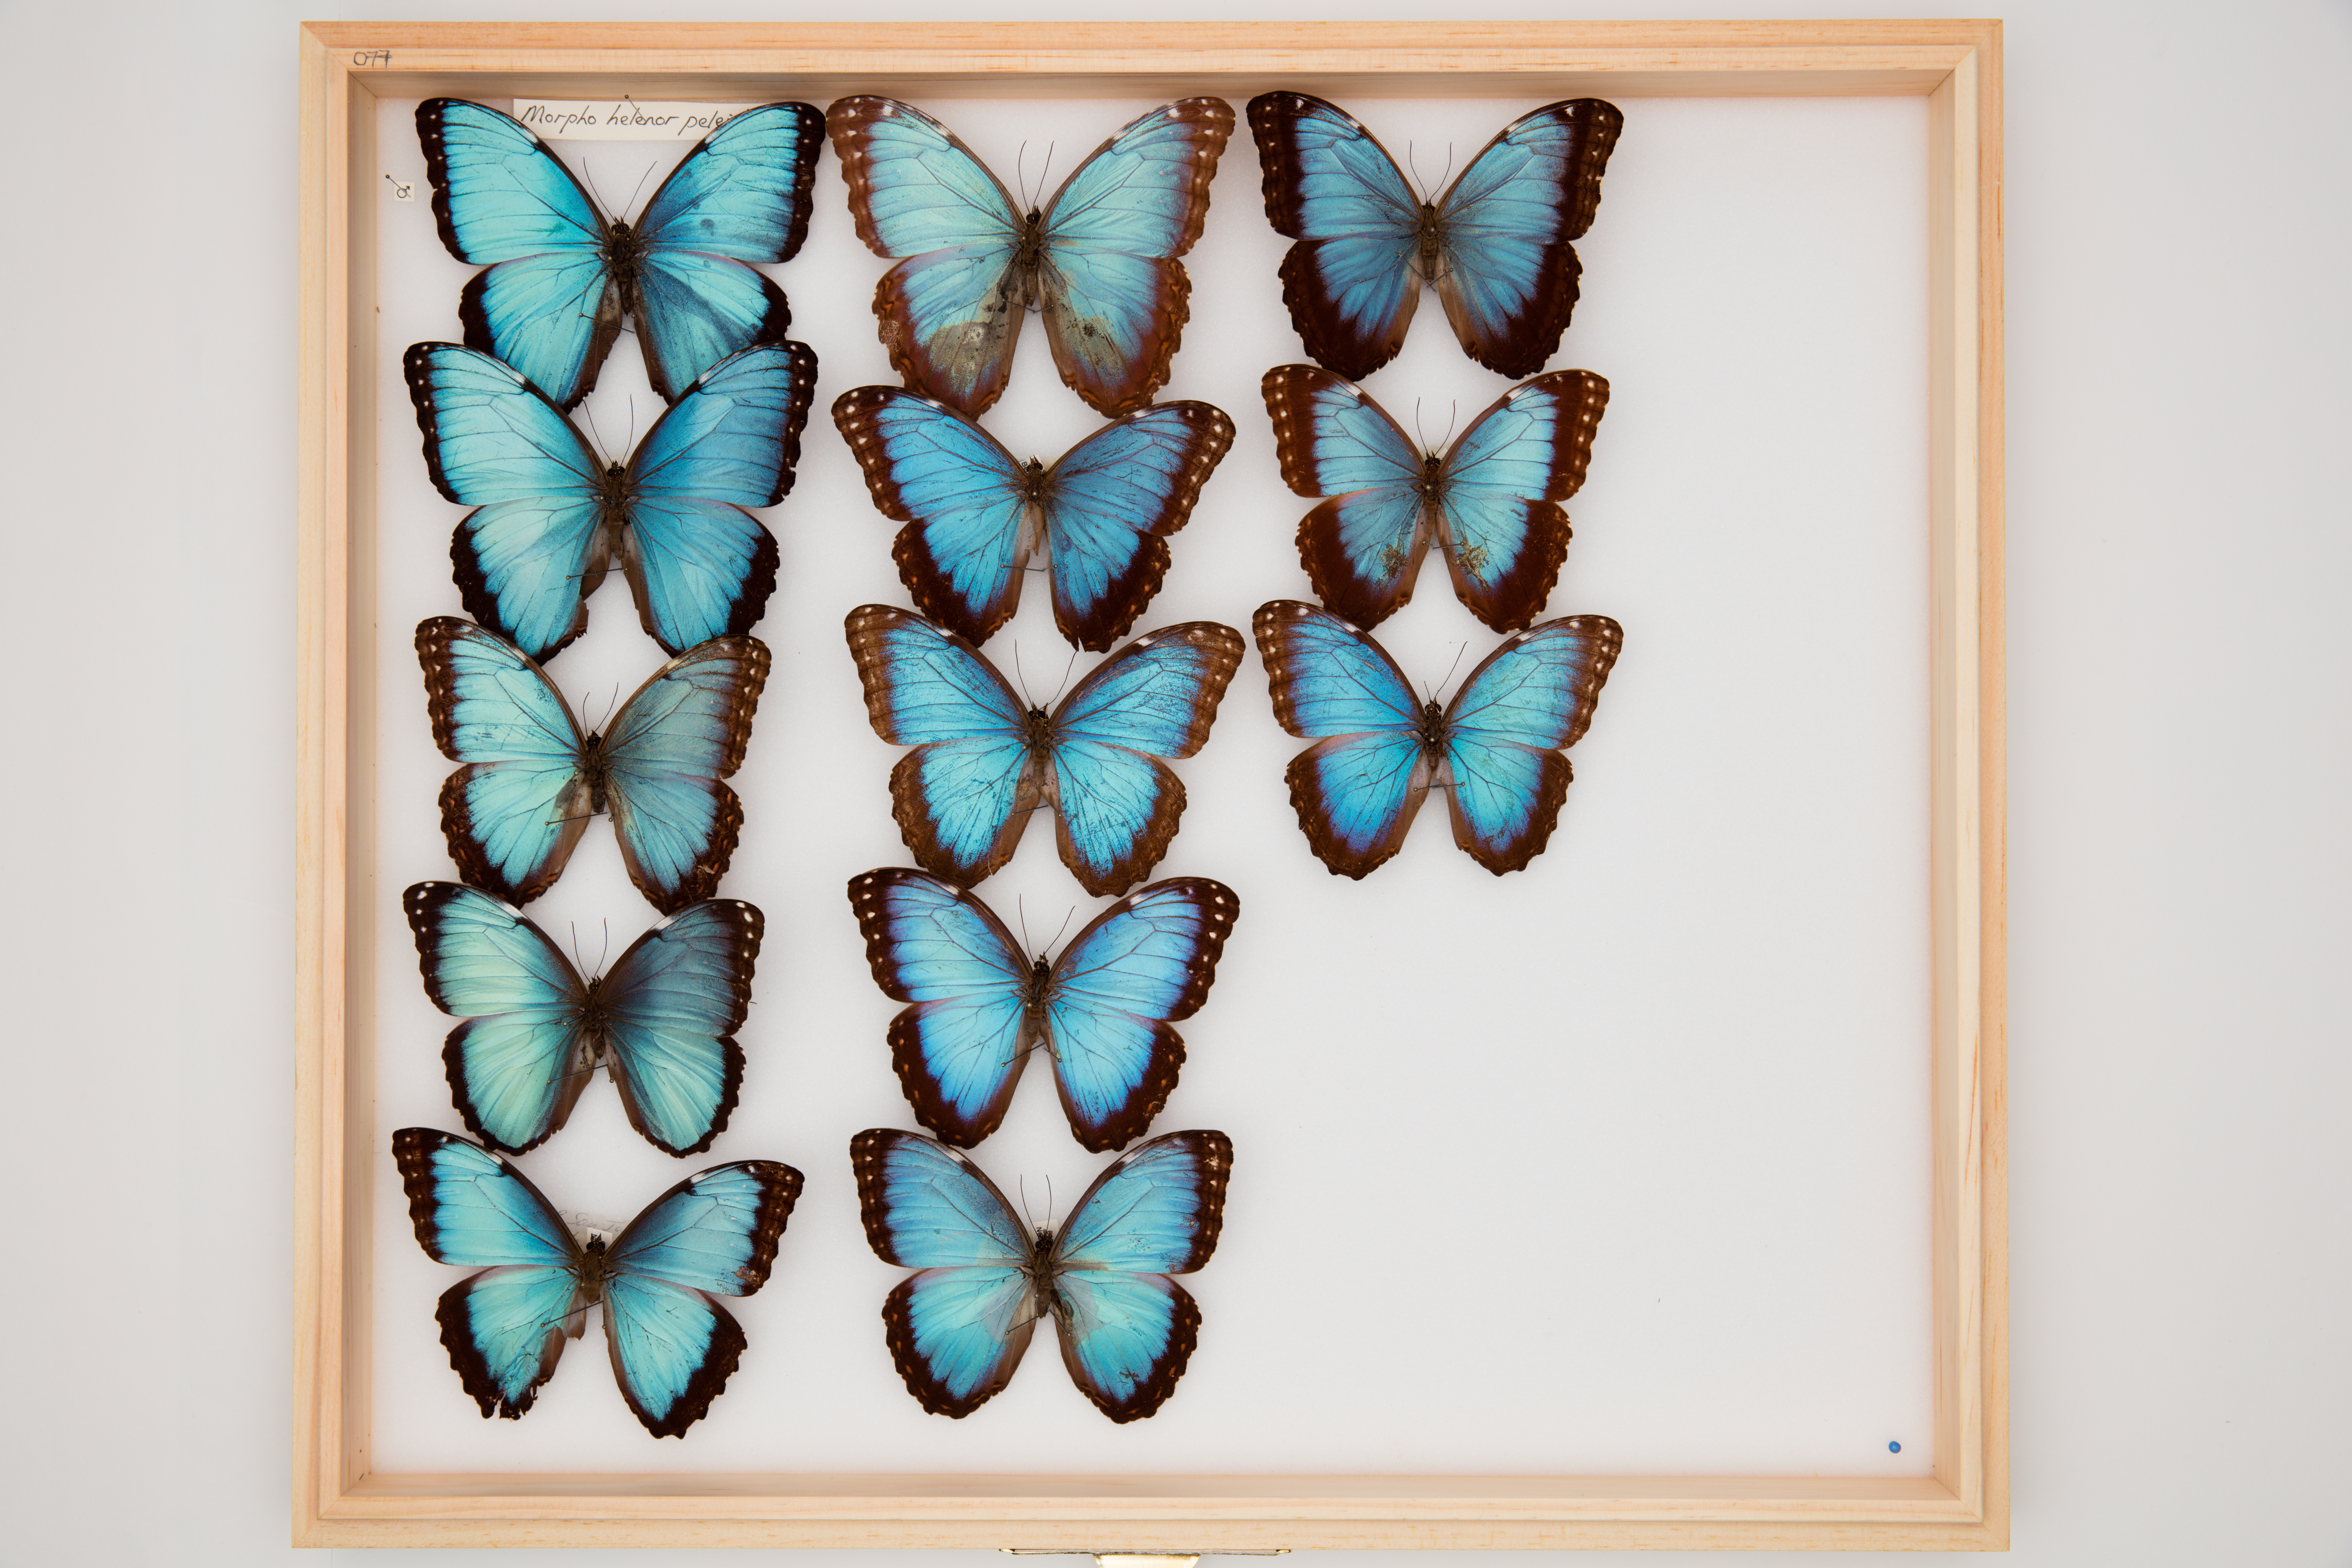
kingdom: Animalia
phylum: Arthropoda
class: Insecta
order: Lepidoptera
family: Nymphalidae
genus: Morpho
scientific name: Morpho helenor
